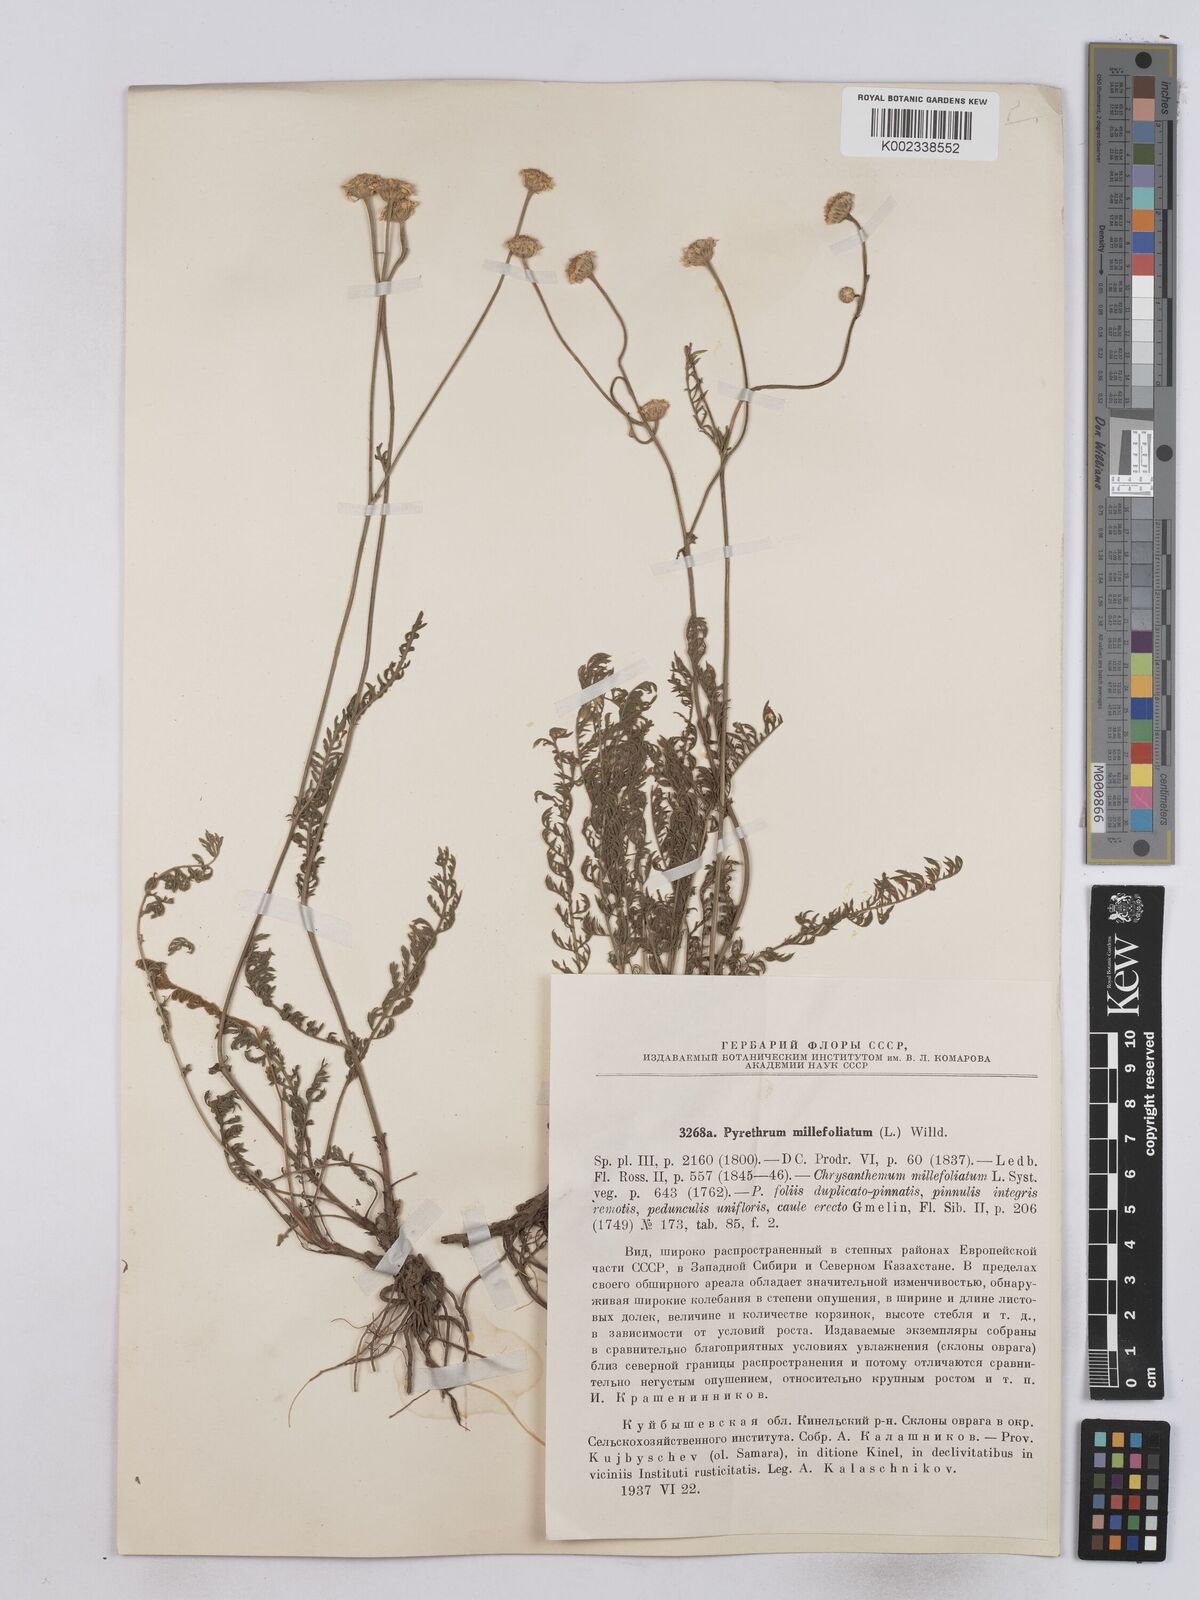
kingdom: Plantae
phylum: Tracheophyta
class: Magnoliopsida
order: Asterales
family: Asteraceae
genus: Tanacetum
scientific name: Tanacetum millefolium
